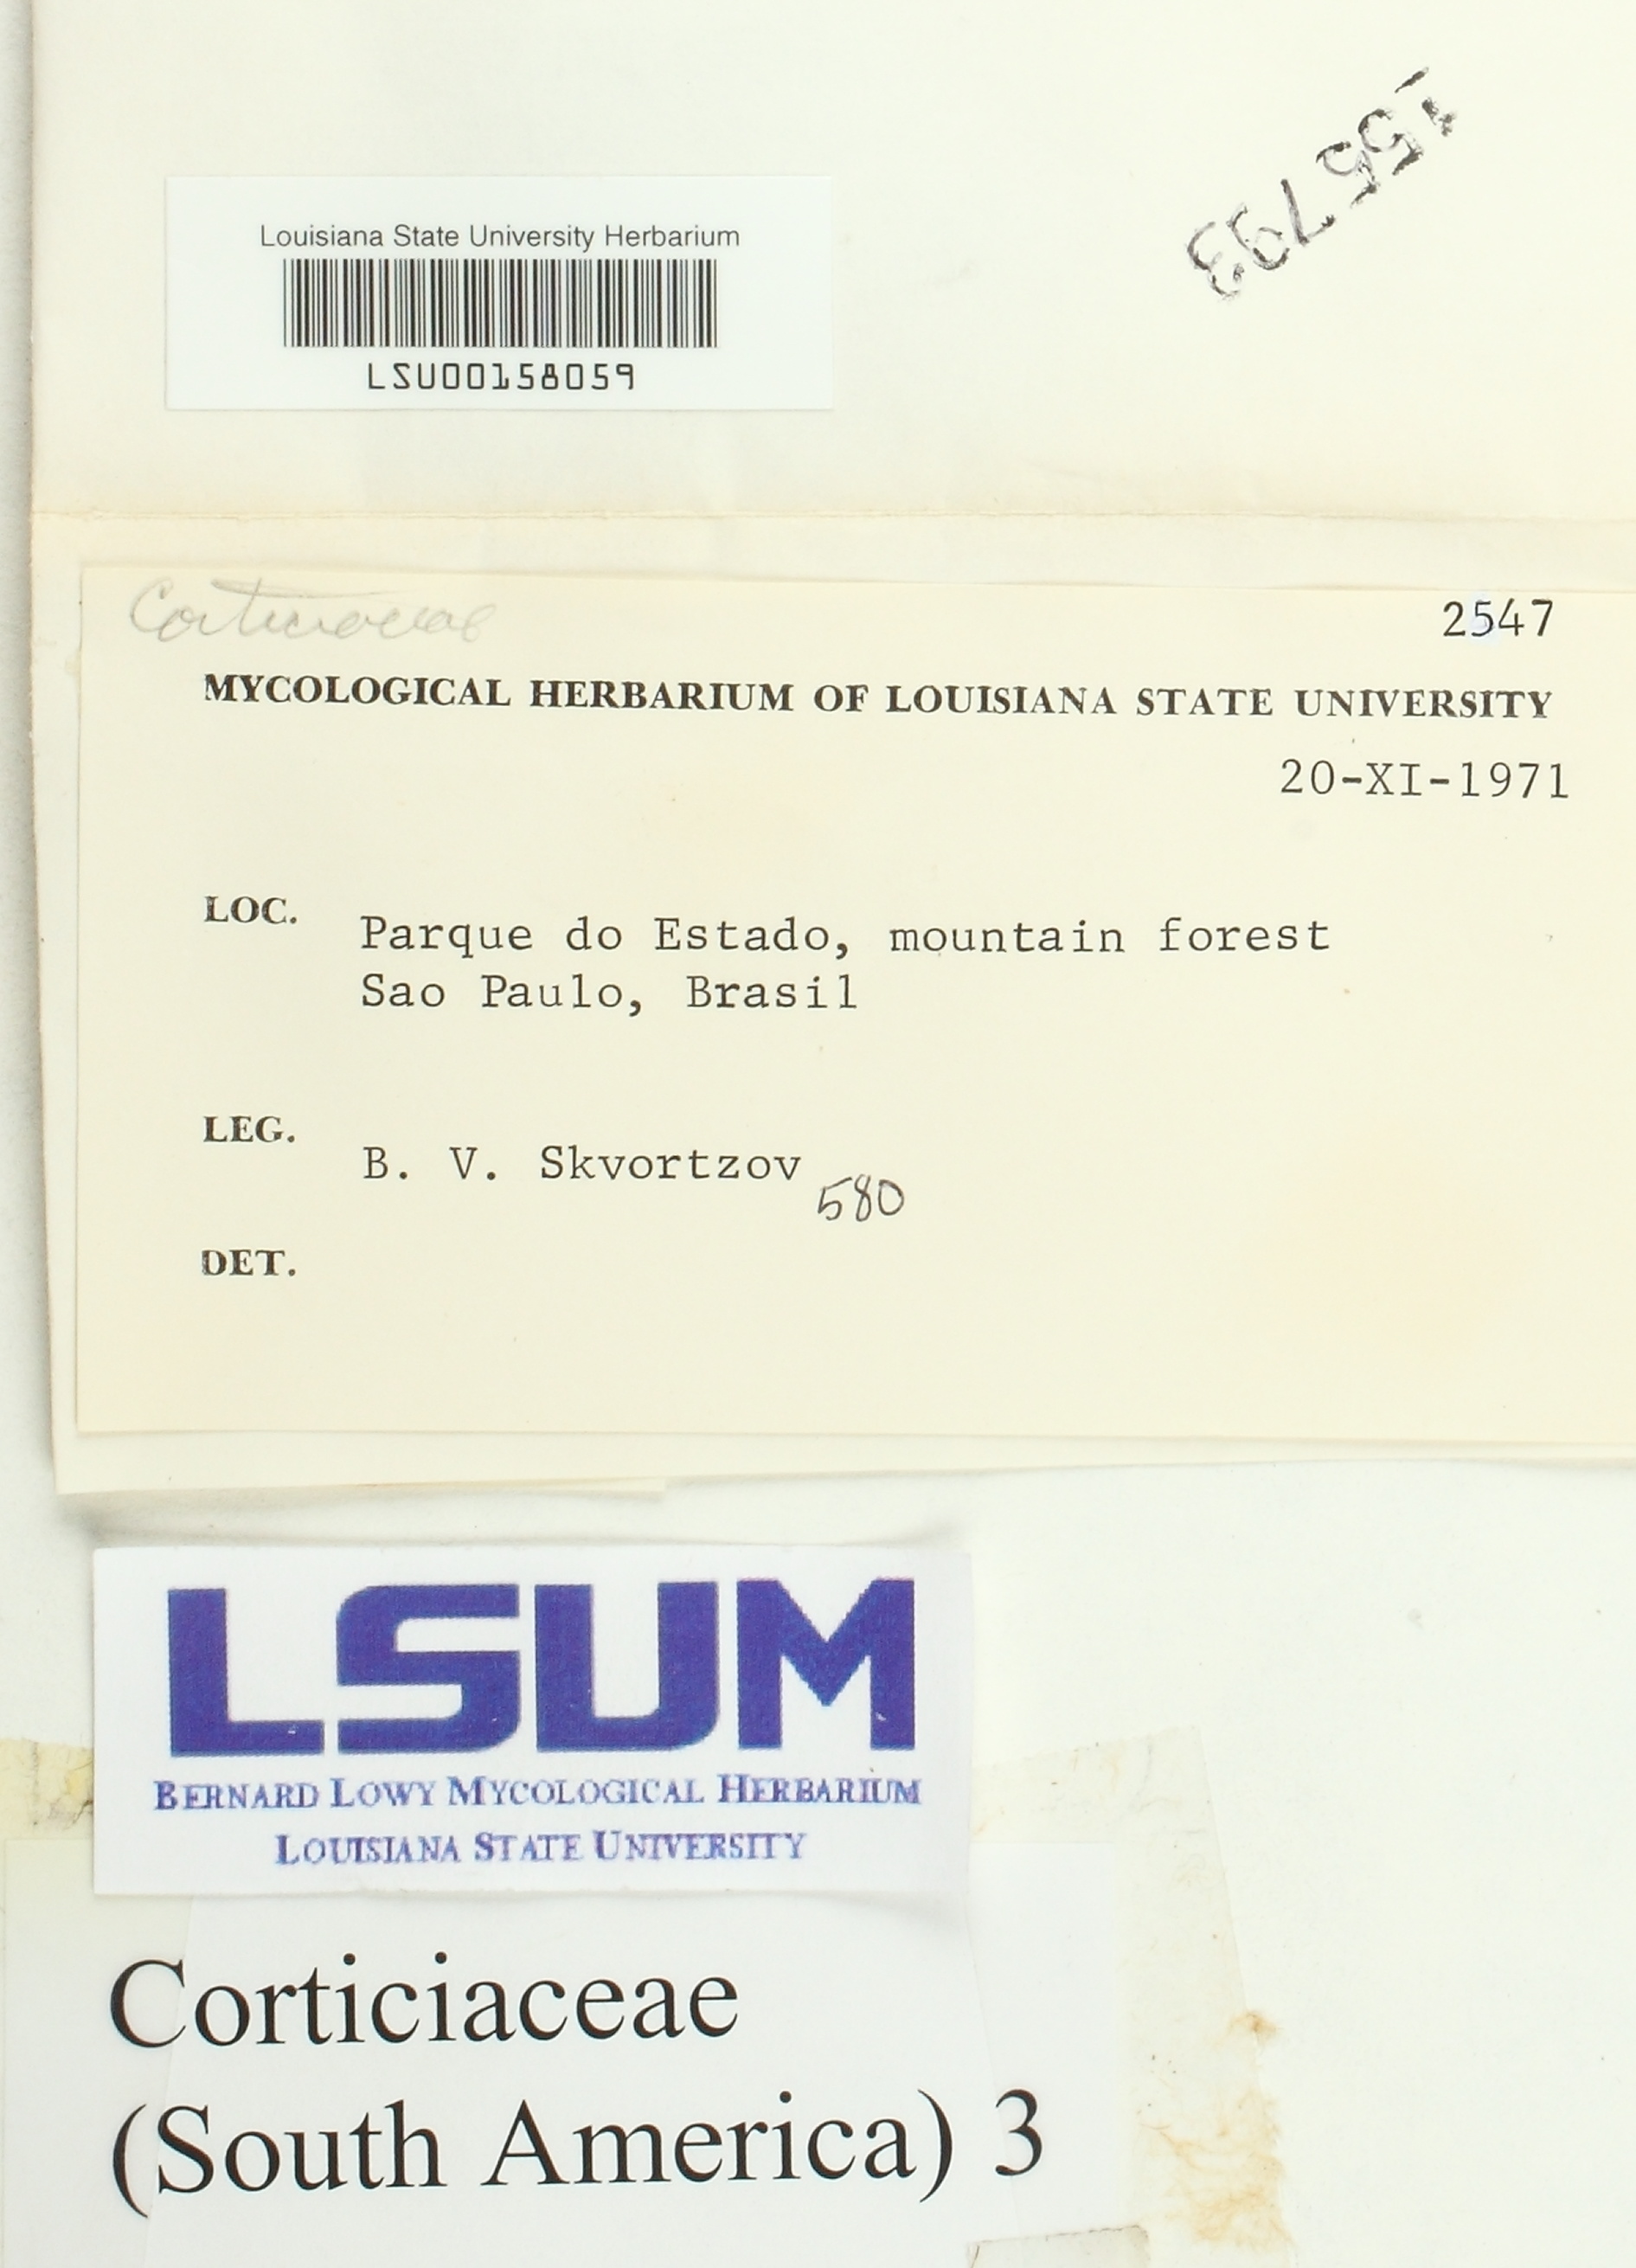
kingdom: Fungi
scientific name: Fungi
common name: Fungi
